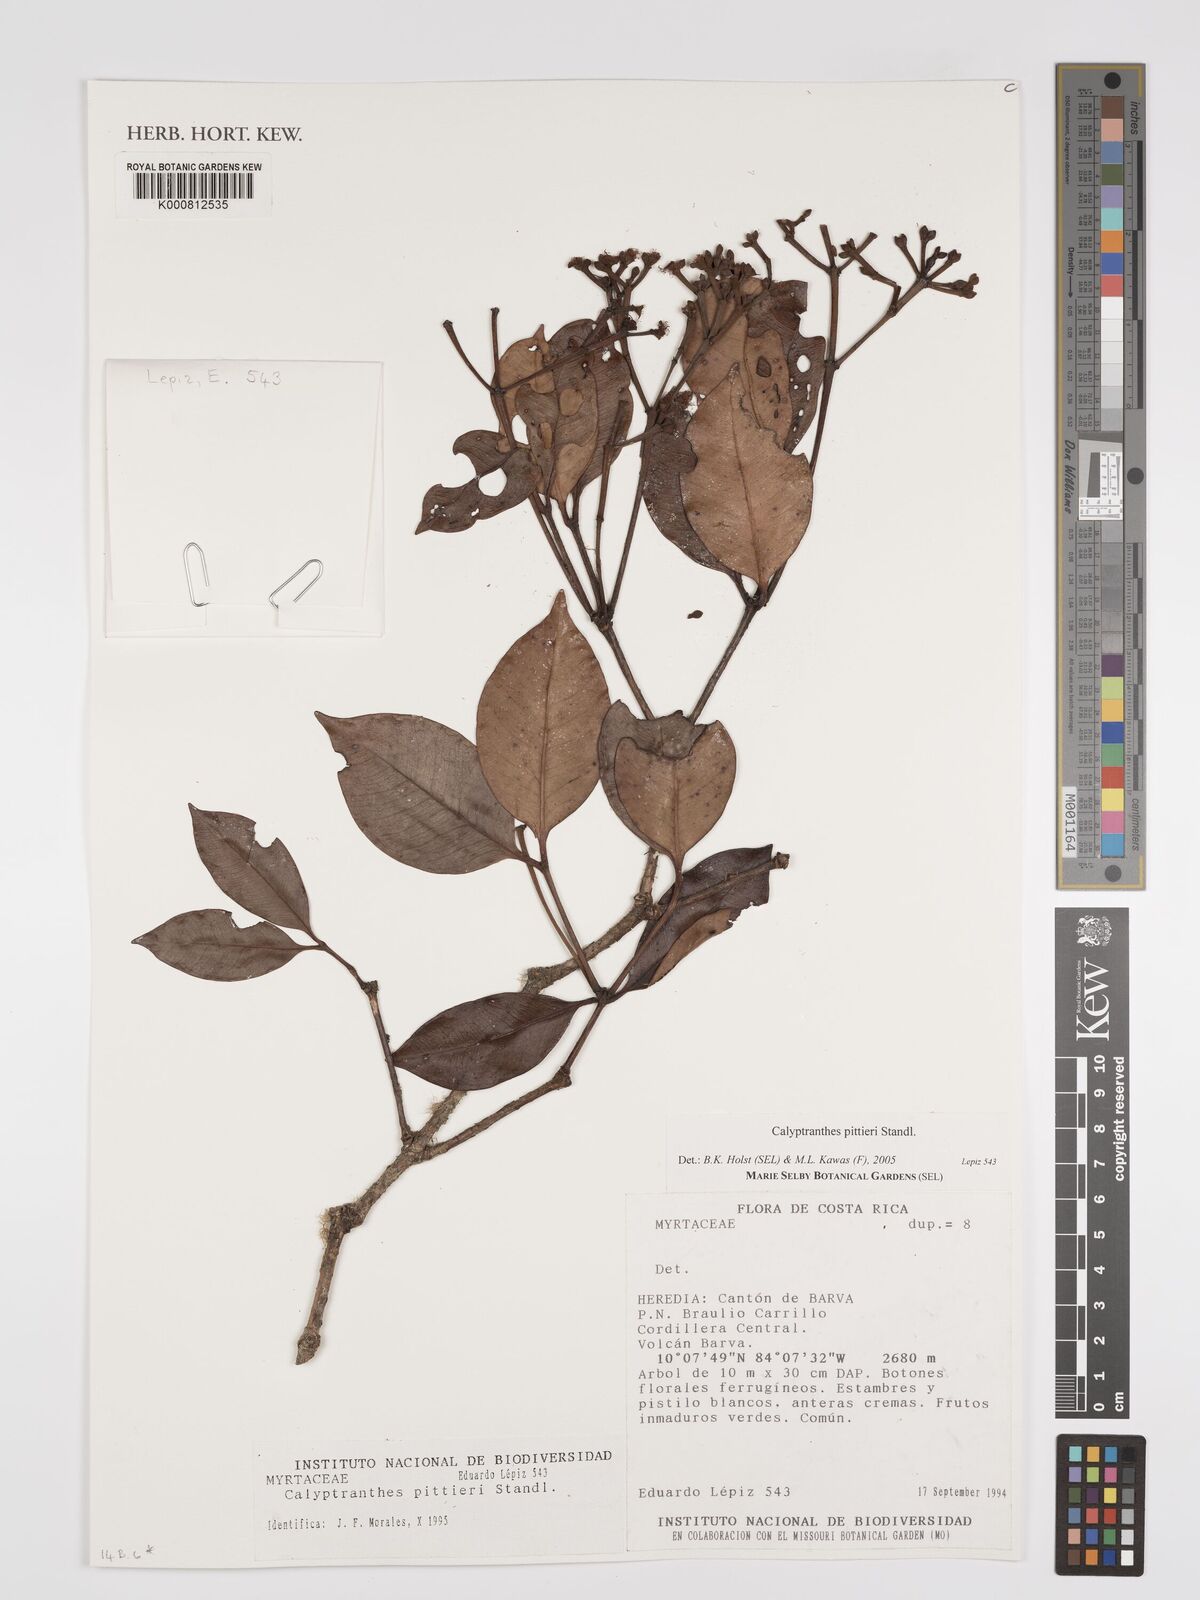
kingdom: Plantae
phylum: Tracheophyta
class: Magnoliopsida
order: Myrtales
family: Myrtaceae
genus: Myrcia
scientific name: Myrcia pittieri
